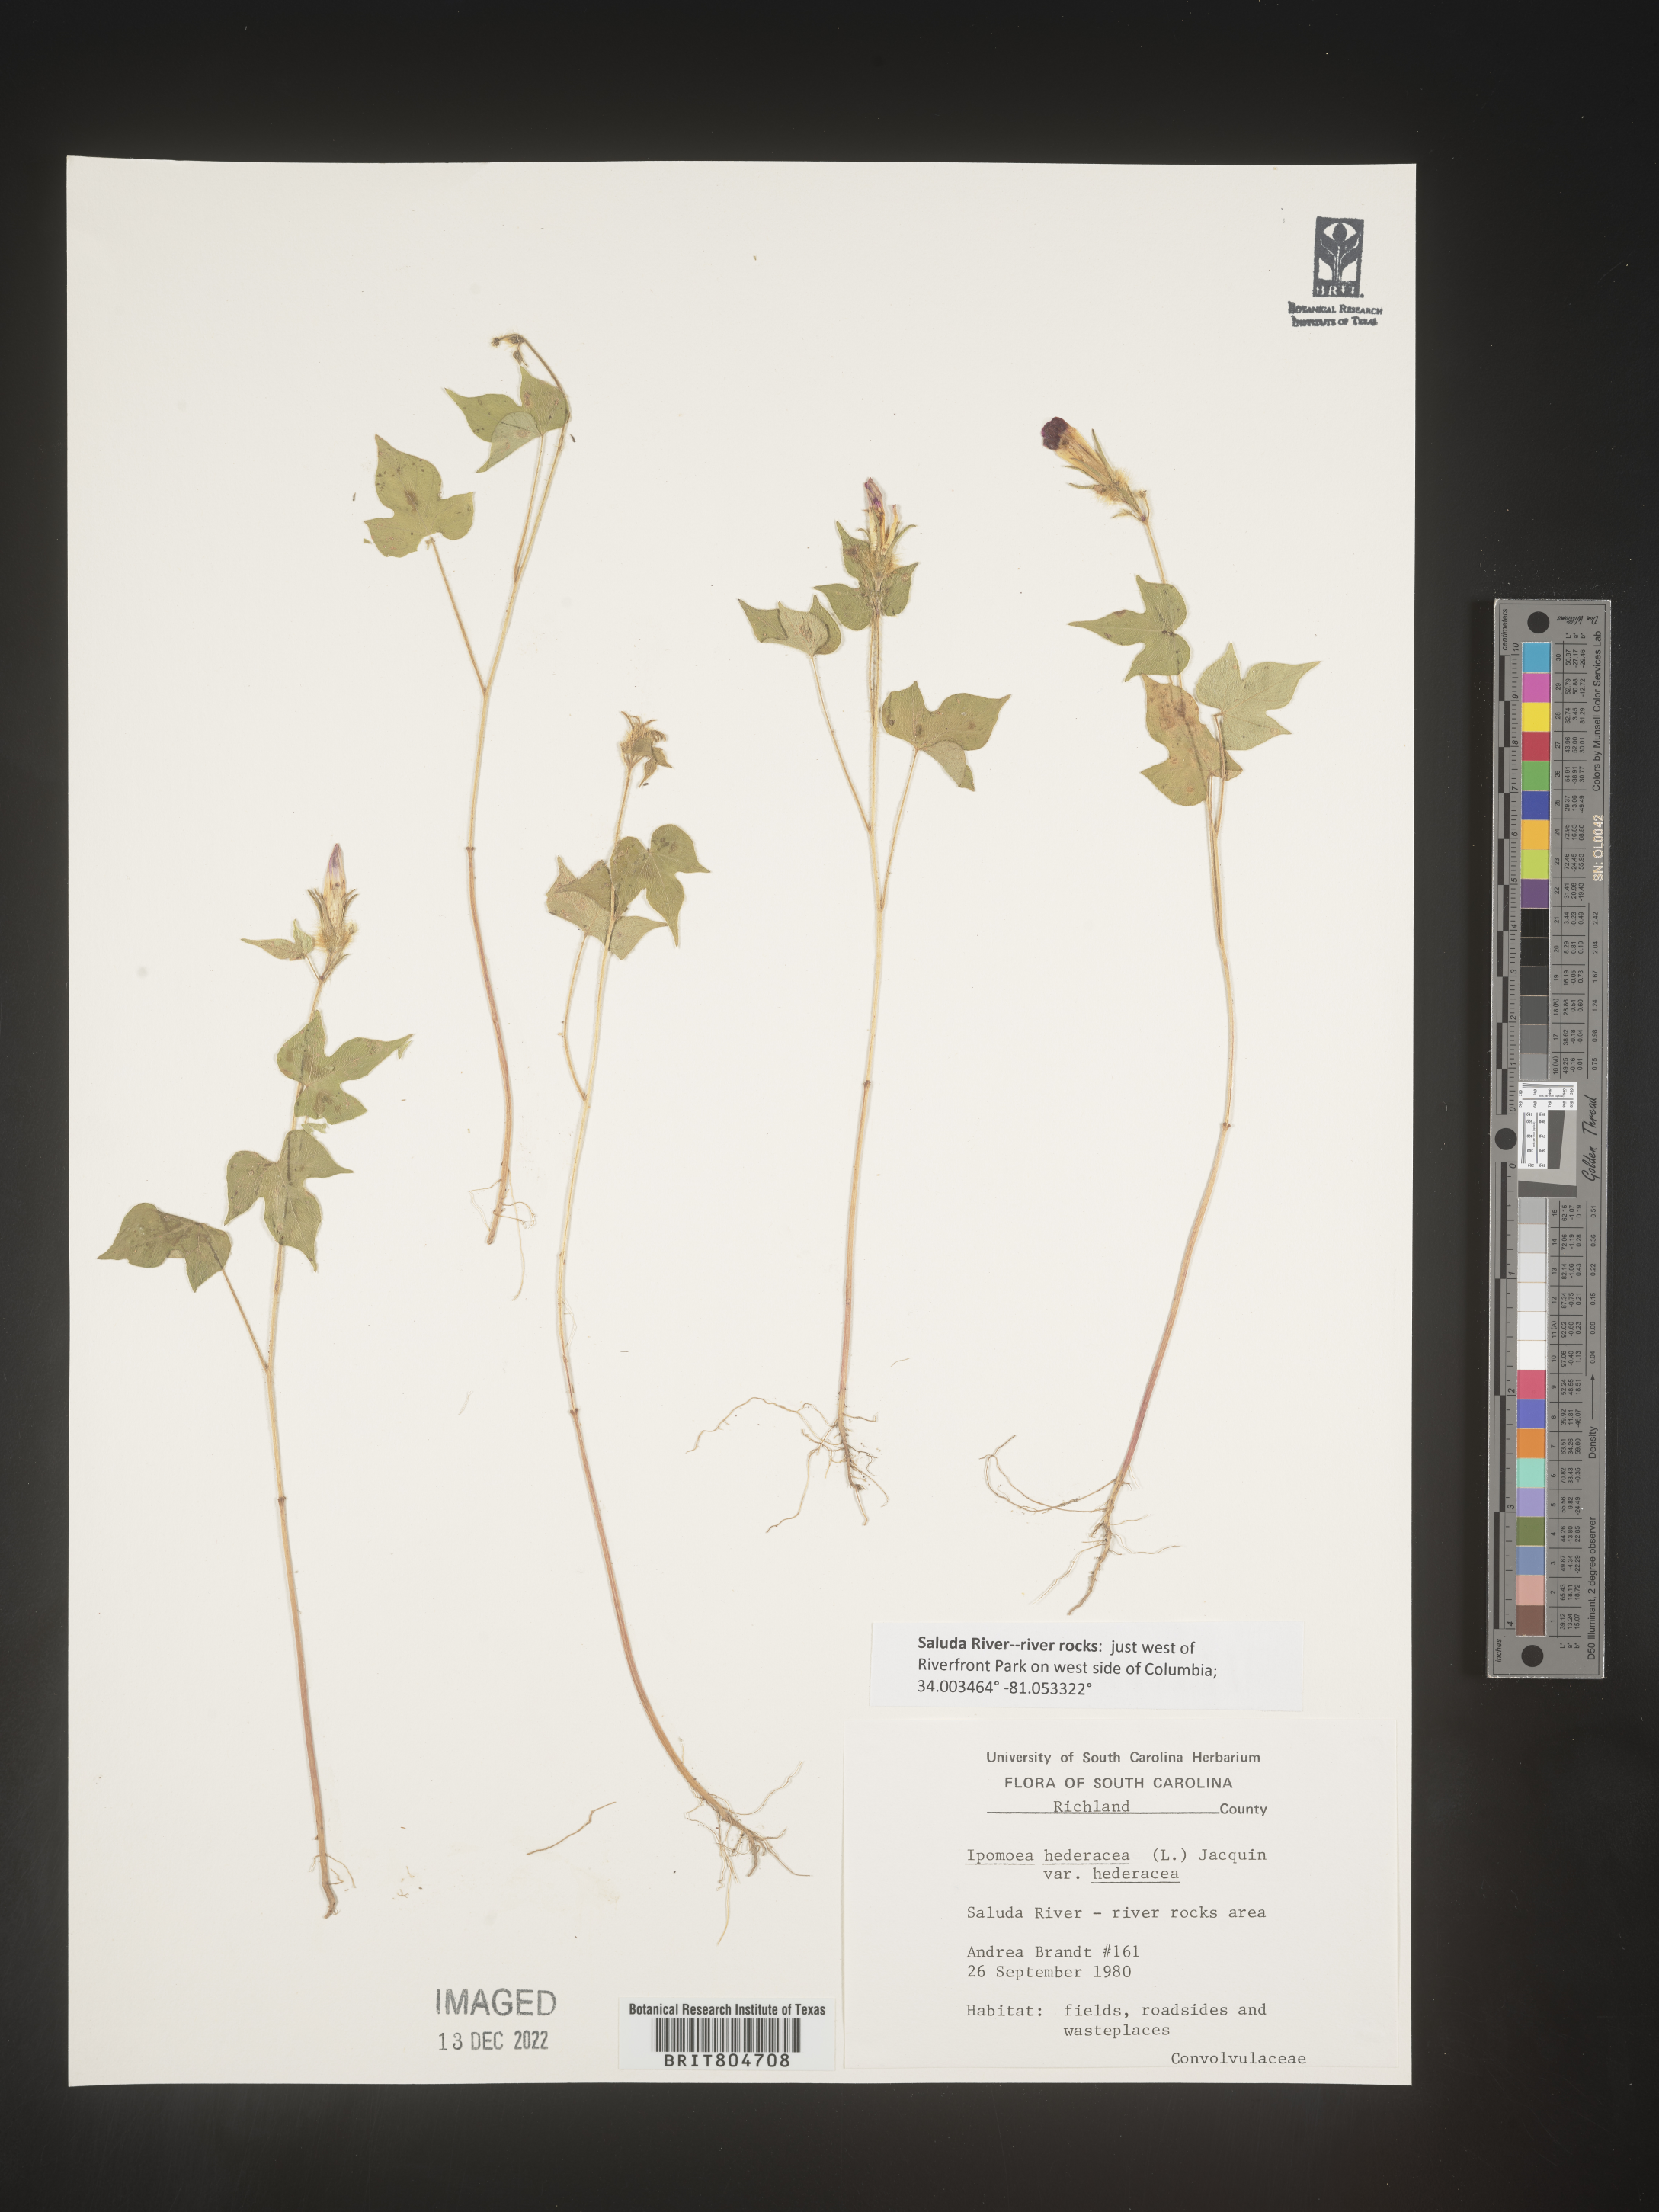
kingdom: Plantae
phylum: Tracheophyta
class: Magnoliopsida
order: Solanales
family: Convolvulaceae
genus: Ipomoea
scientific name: Ipomoea hederacea
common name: Ivy-leaved morning-glory
